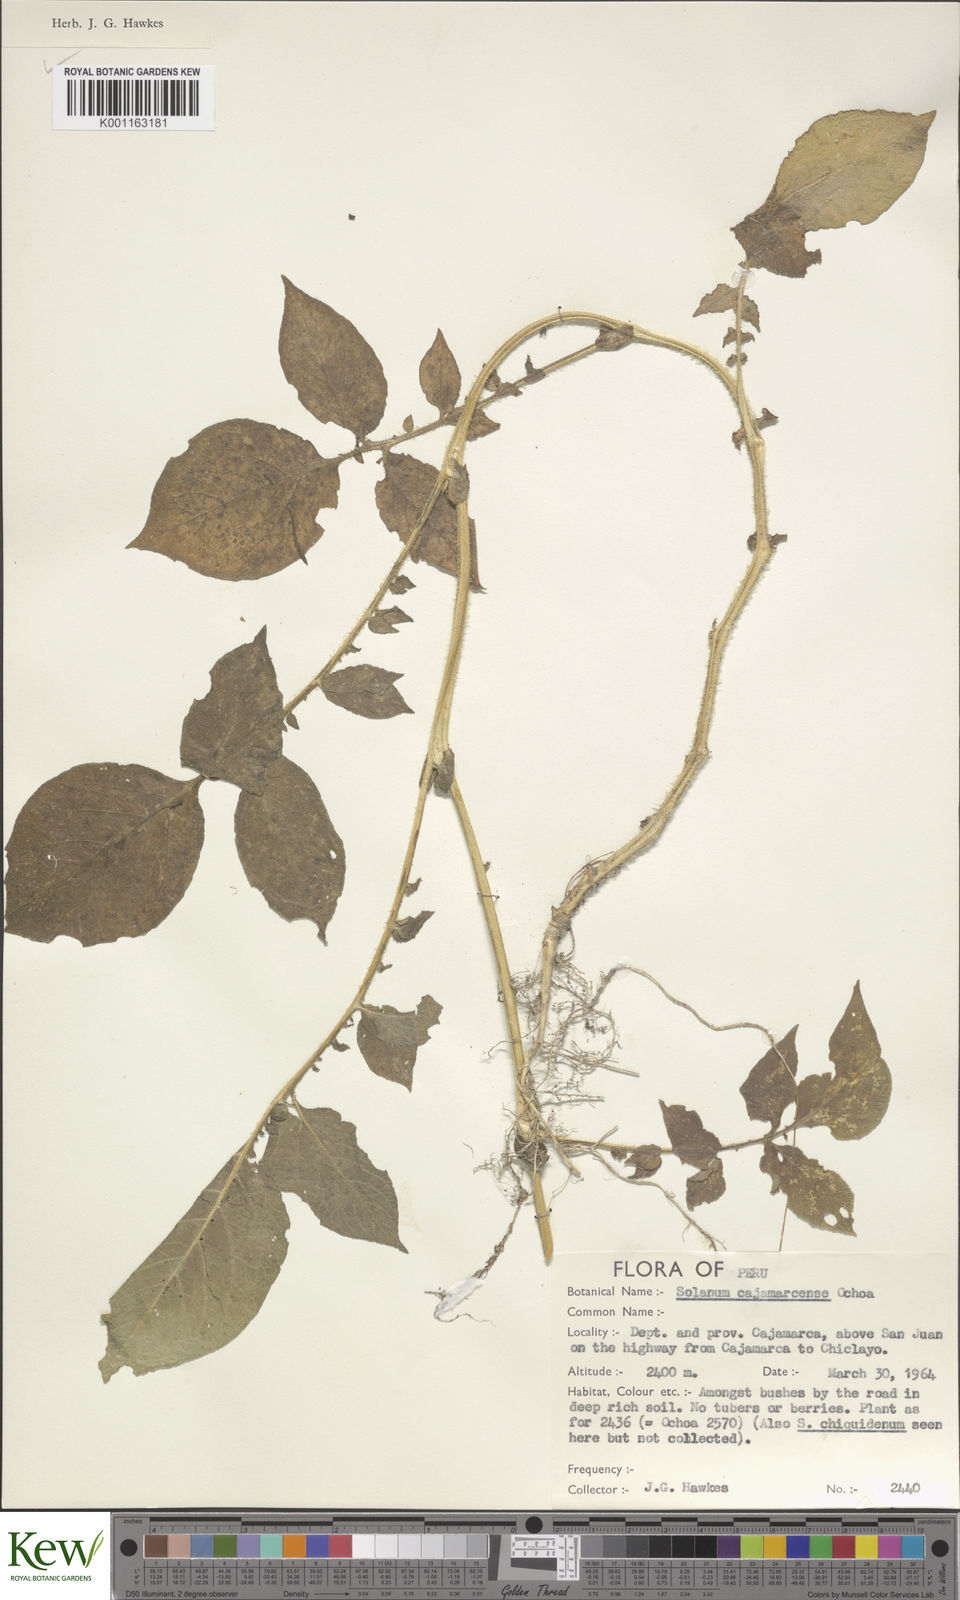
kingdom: Plantae
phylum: Tracheophyta
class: Magnoliopsida
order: Solanales
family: Solanaceae
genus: Solanum
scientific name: Solanum cajamarquense
